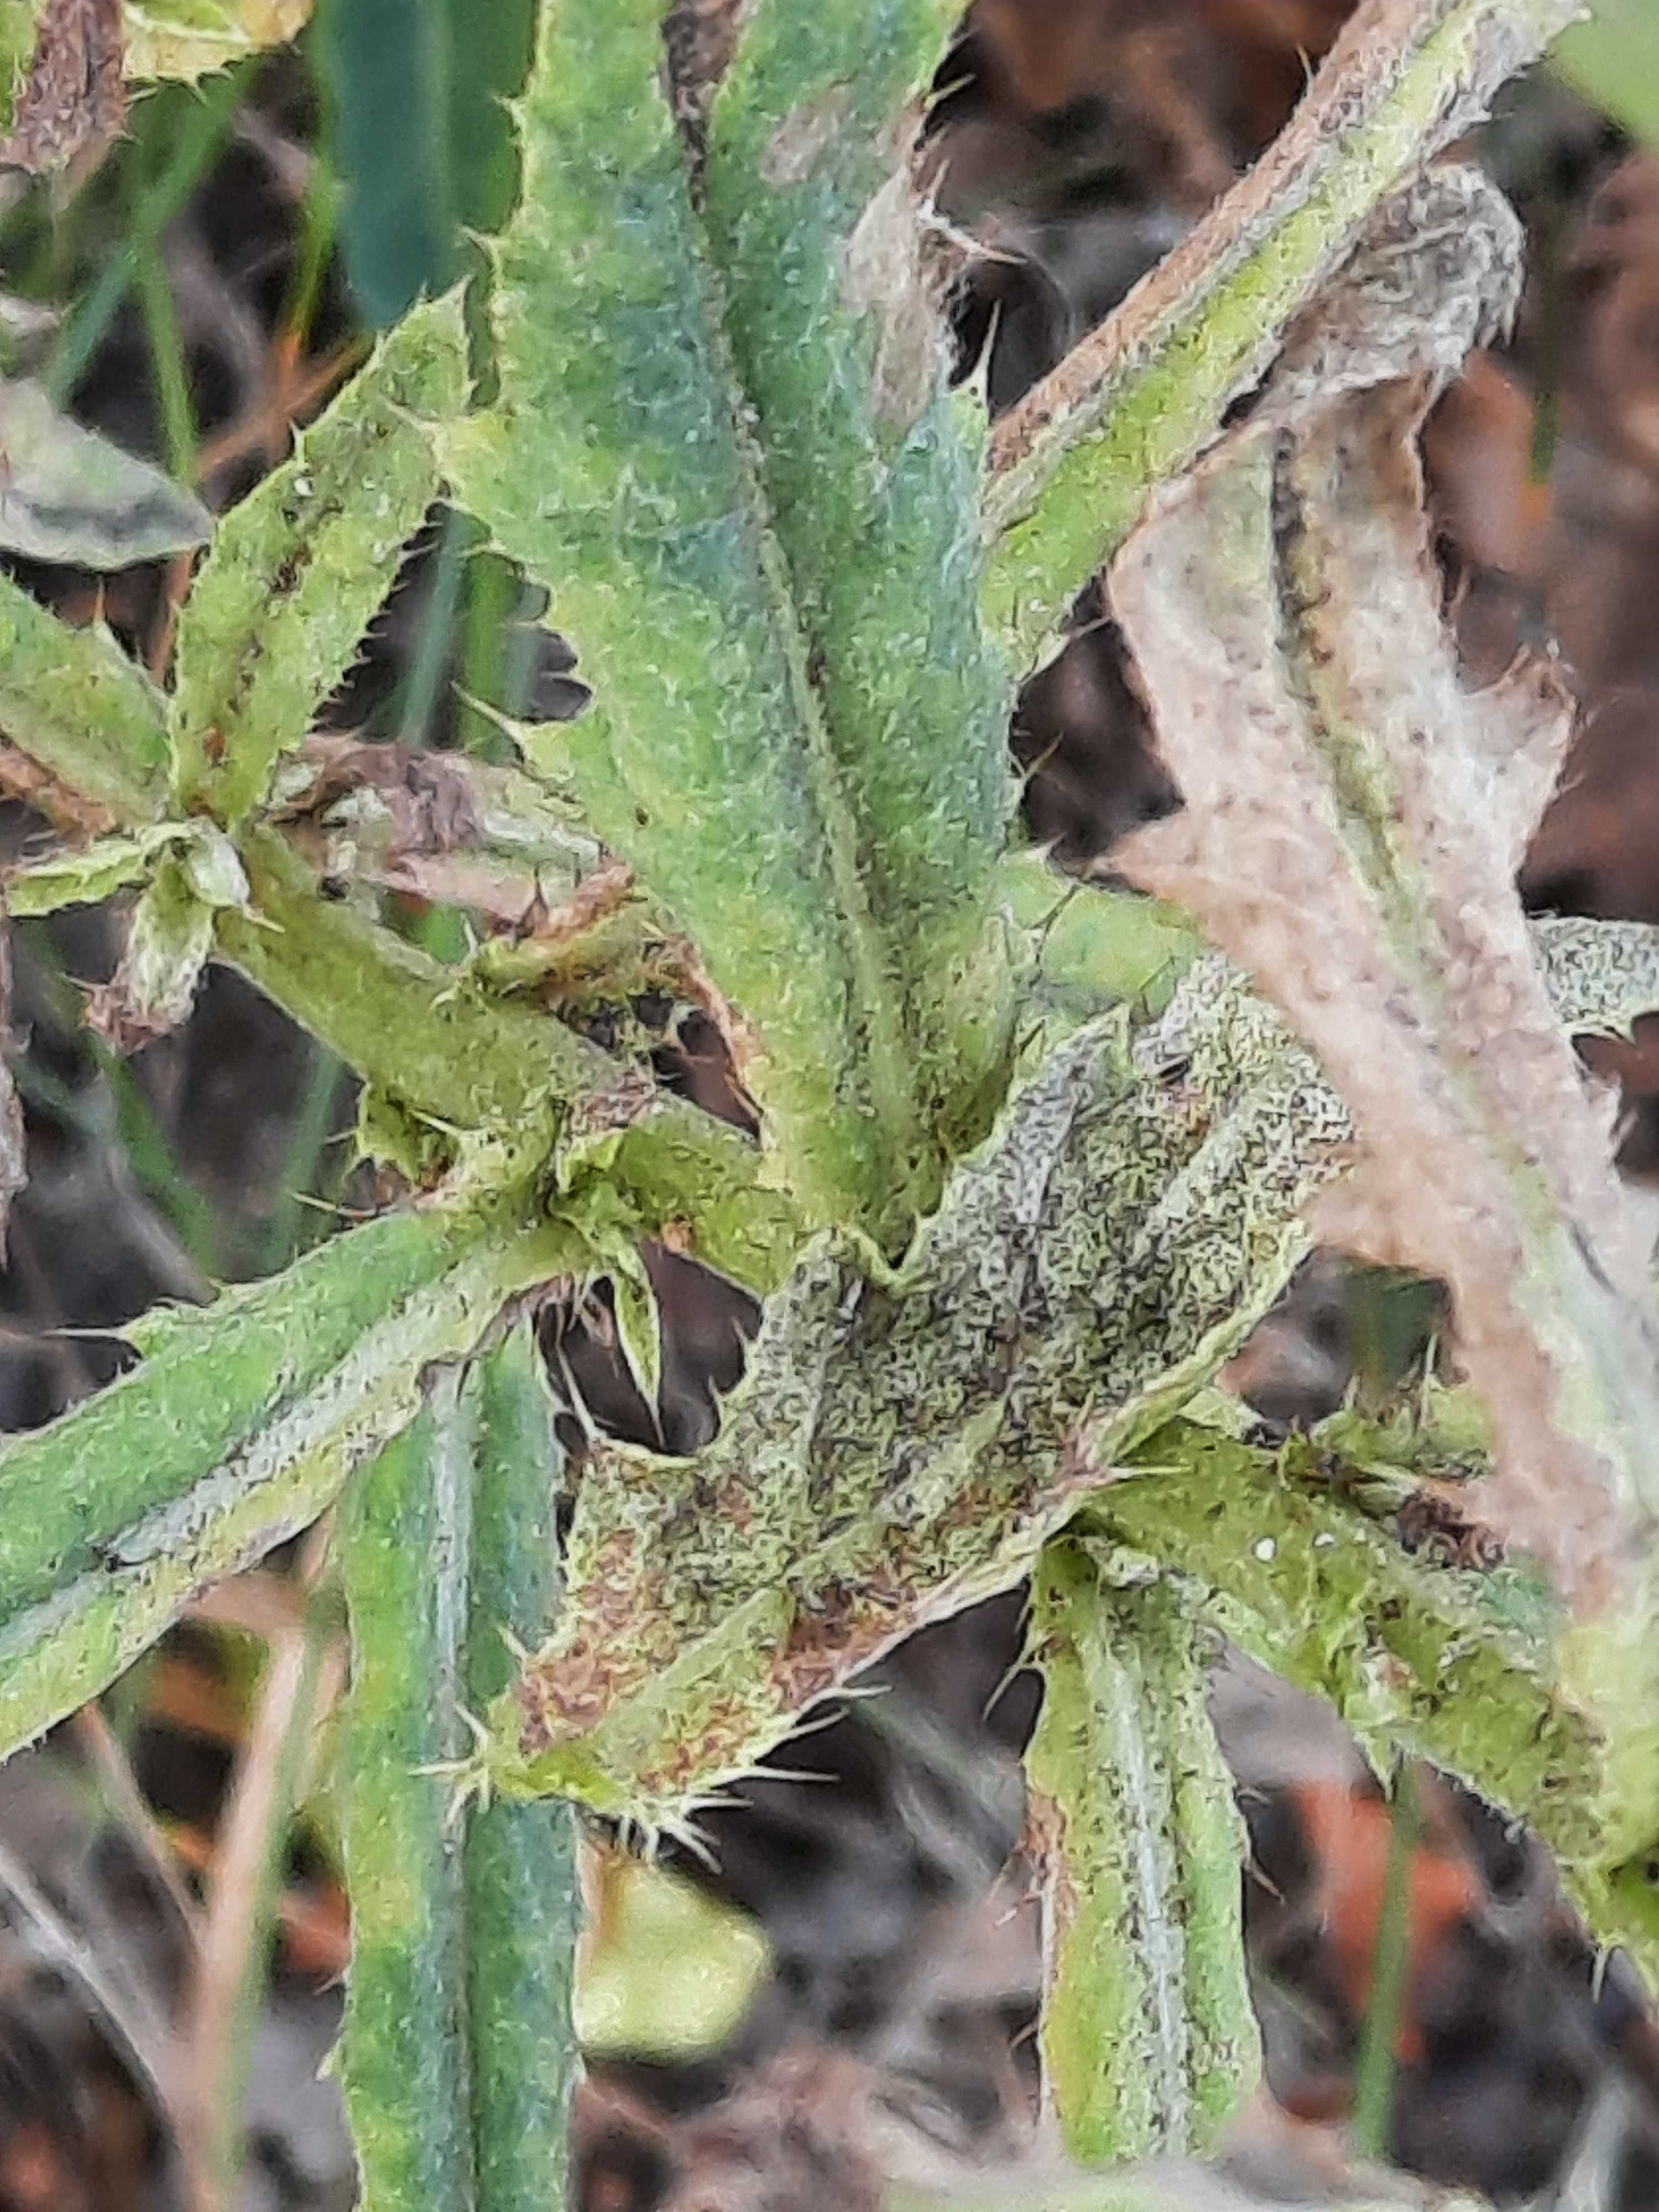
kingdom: Fungi
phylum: Basidiomycota
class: Pucciniomycetes
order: Pucciniales
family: Pucciniaceae
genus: Puccinia
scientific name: Puccinia suaveolens
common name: tidsel-tvecellerust
